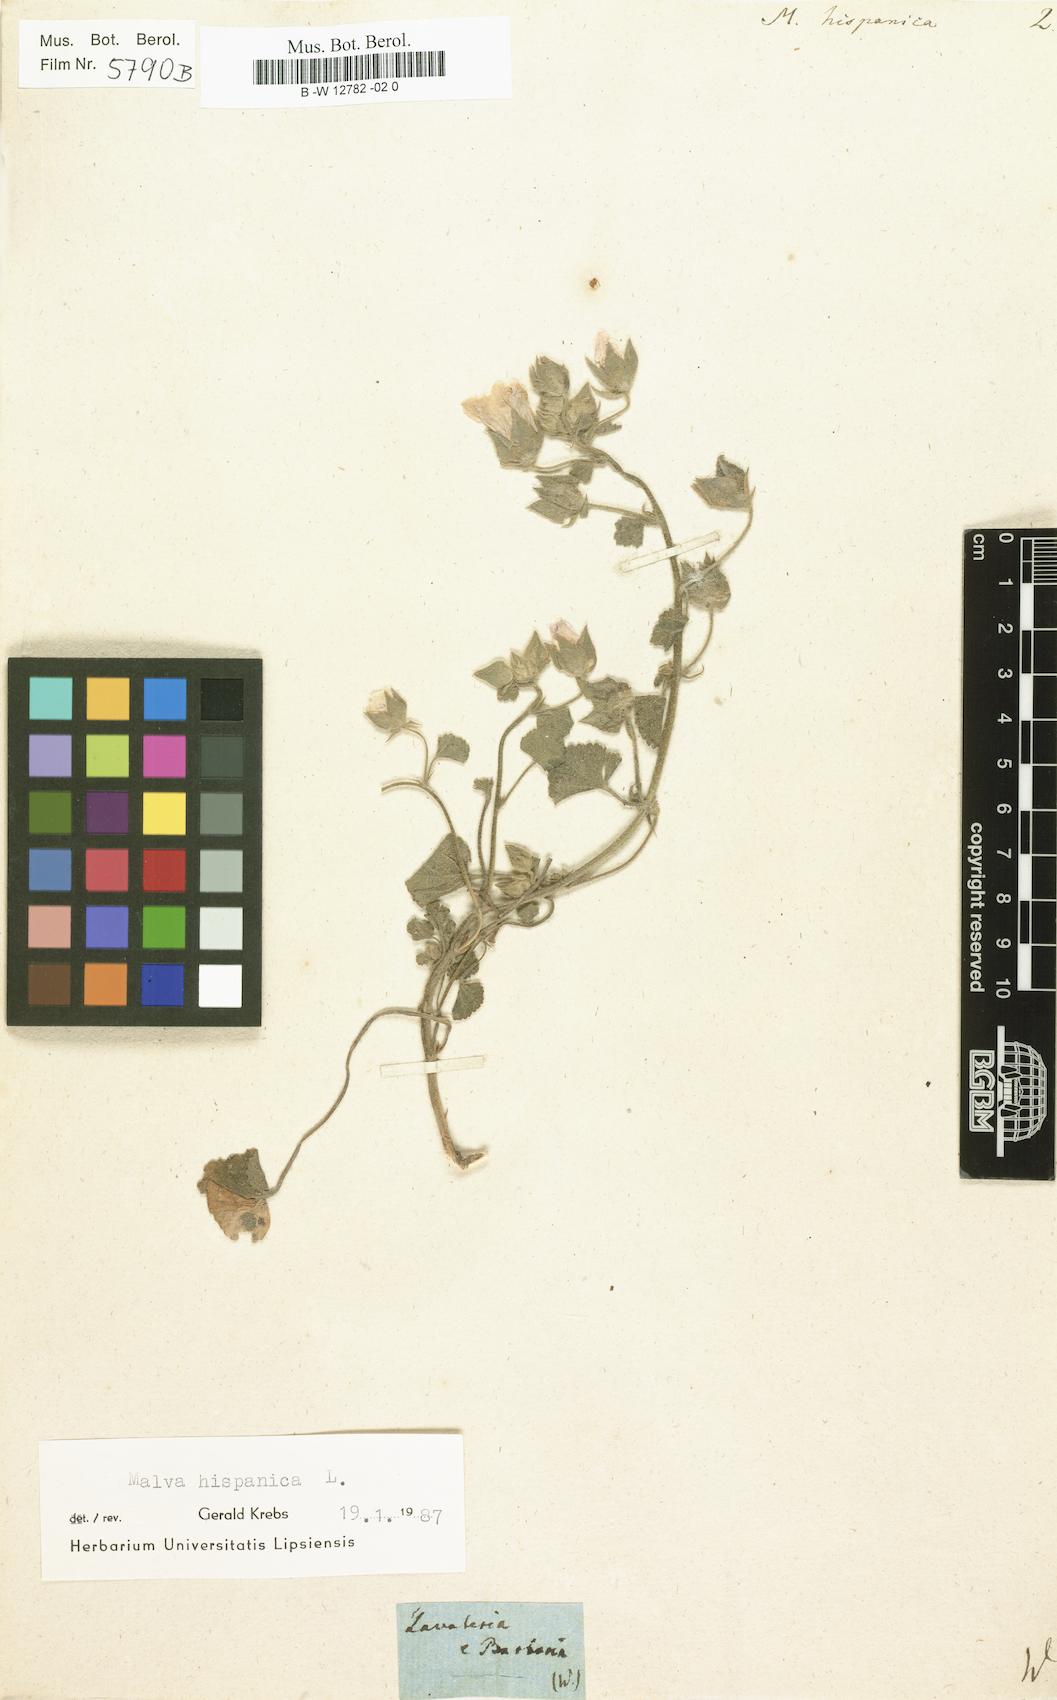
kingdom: Plantae
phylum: Tracheophyta
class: Magnoliopsida
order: Malvales
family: Malvaceae
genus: Malva
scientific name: Malva hispanica
